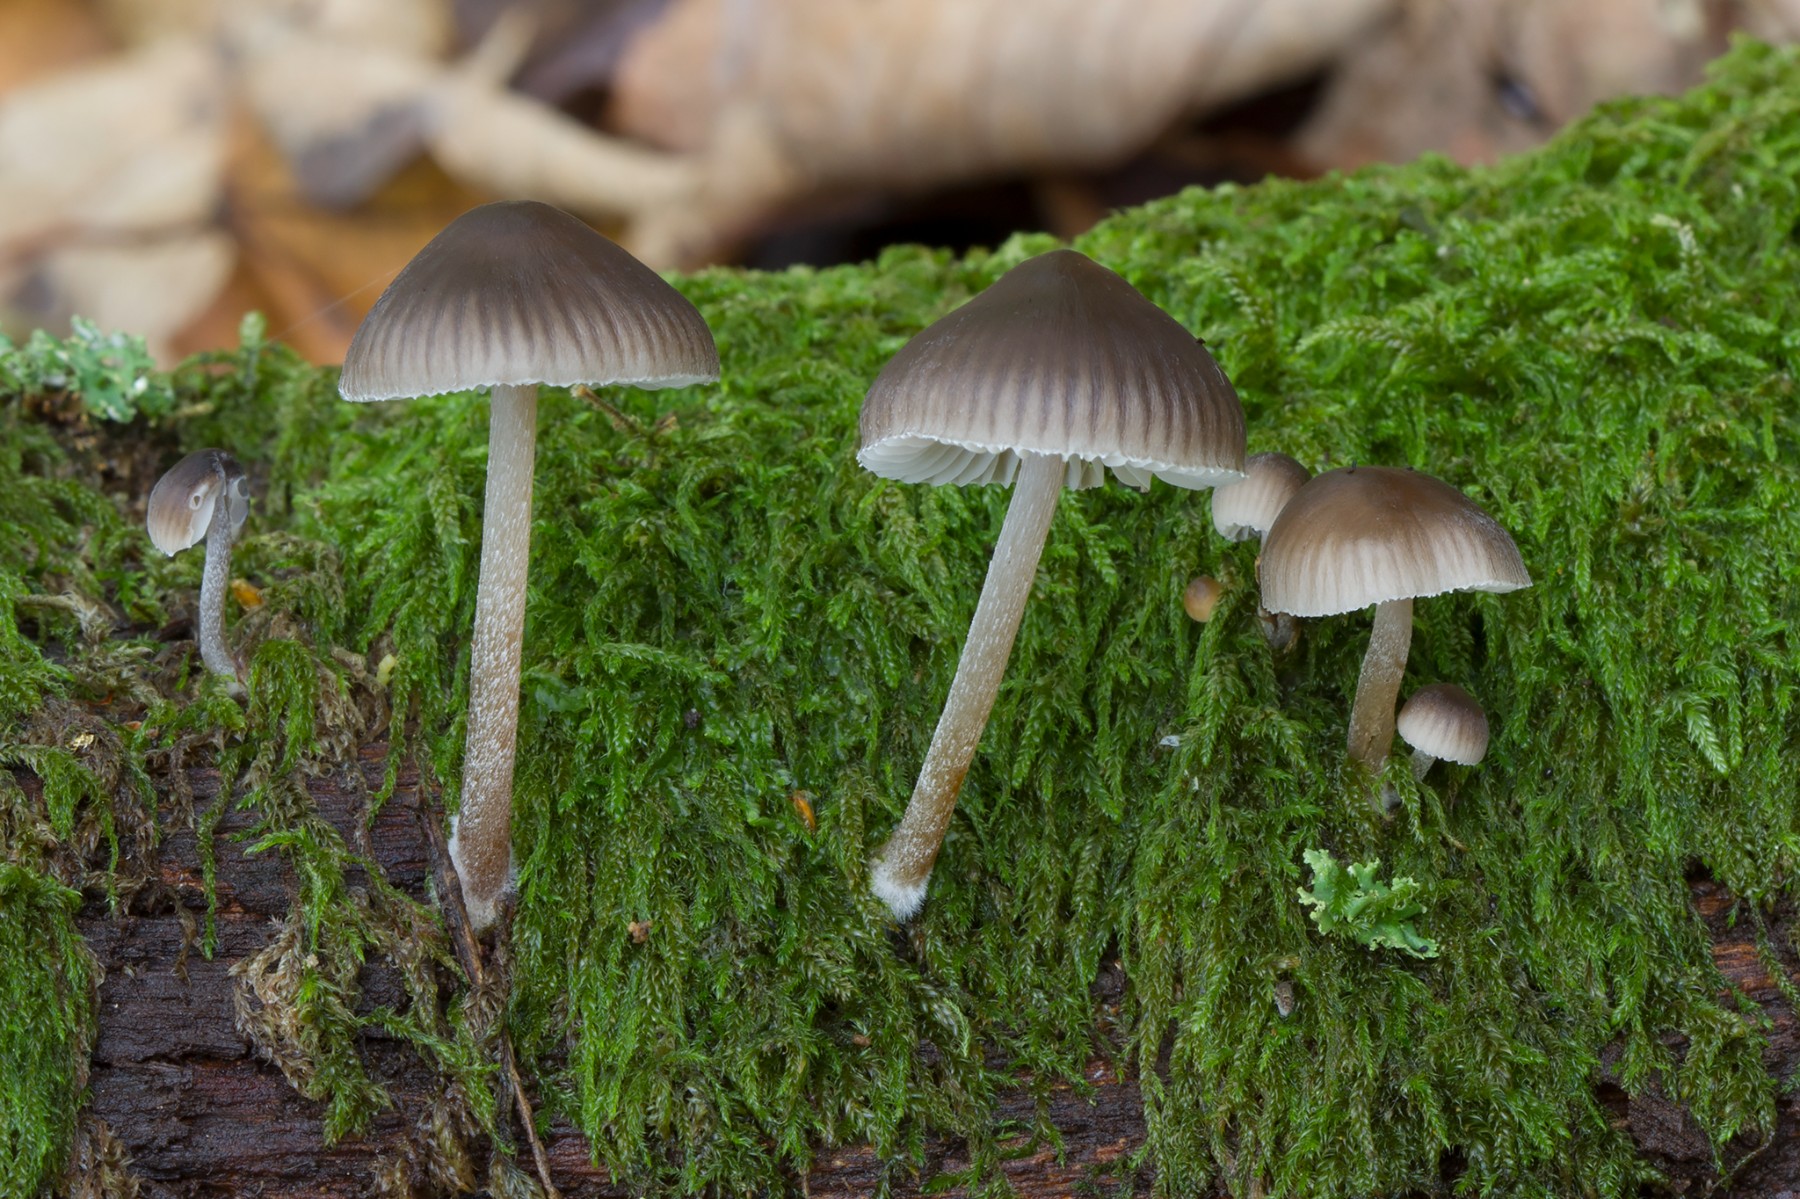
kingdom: Fungi
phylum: Basidiomycota
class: Agaricomycetes
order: Agaricales
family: Mycenaceae
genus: Mycena
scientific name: Mycena inclinata
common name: nikkende huesvamp
